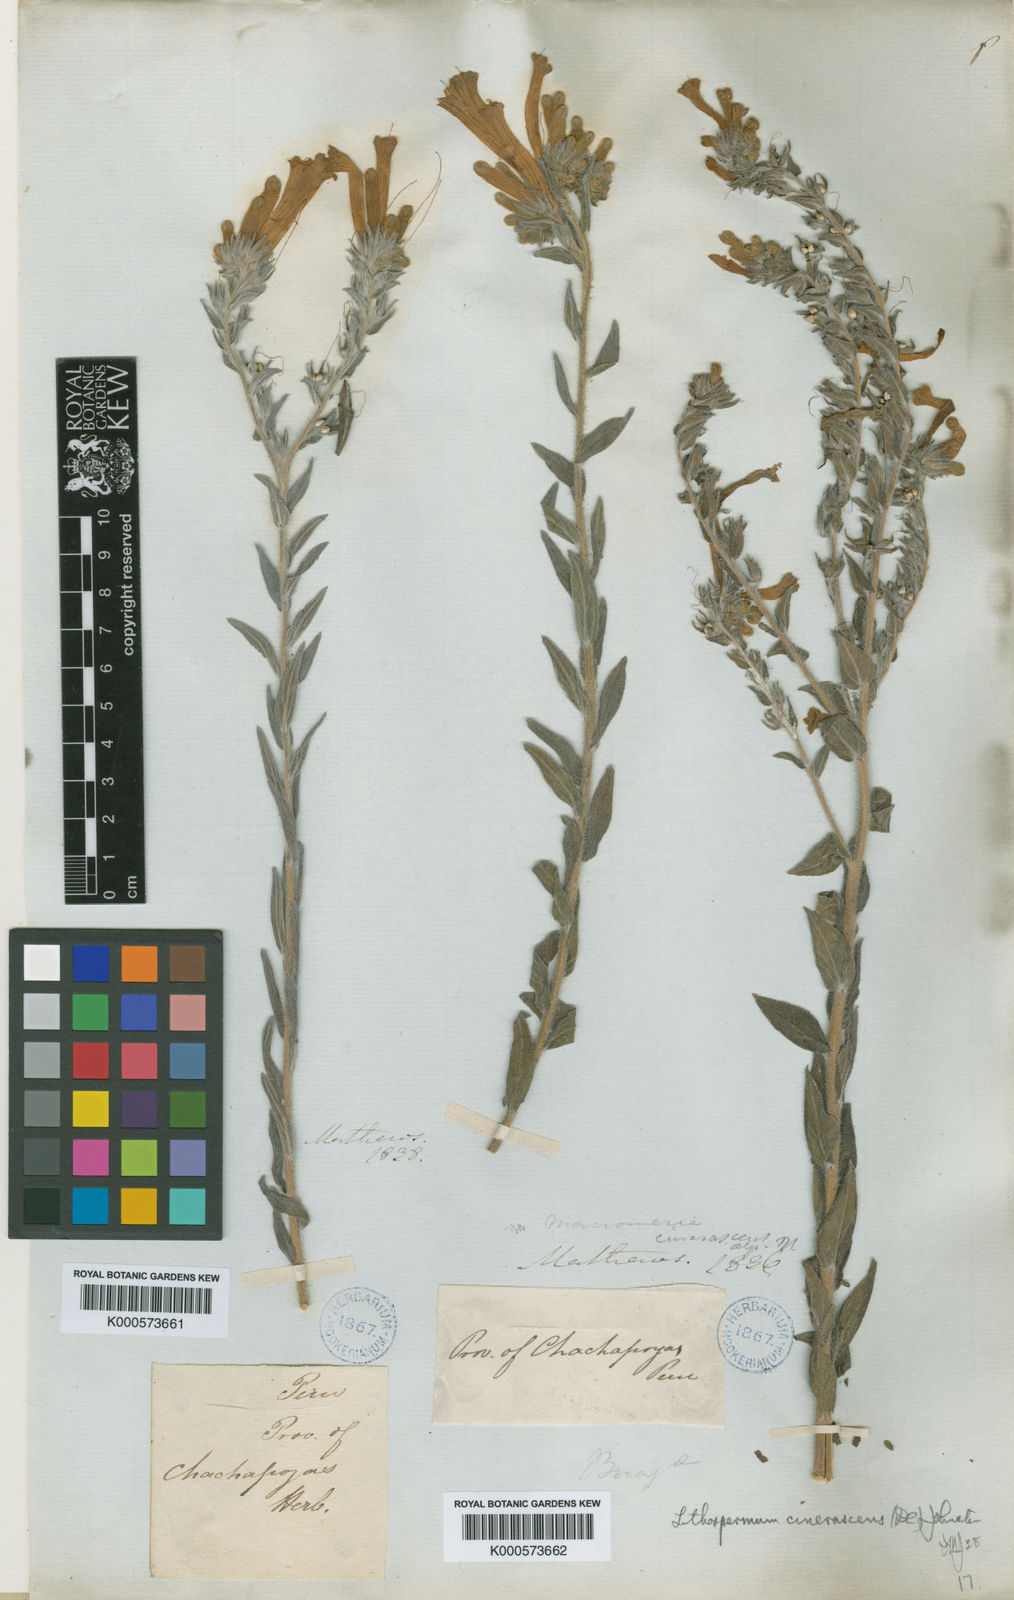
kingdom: Plantae
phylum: Tracheophyta
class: Magnoliopsida
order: Boraginales
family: Boraginaceae
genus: Lithospermum
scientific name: Lithospermum cinerascens
